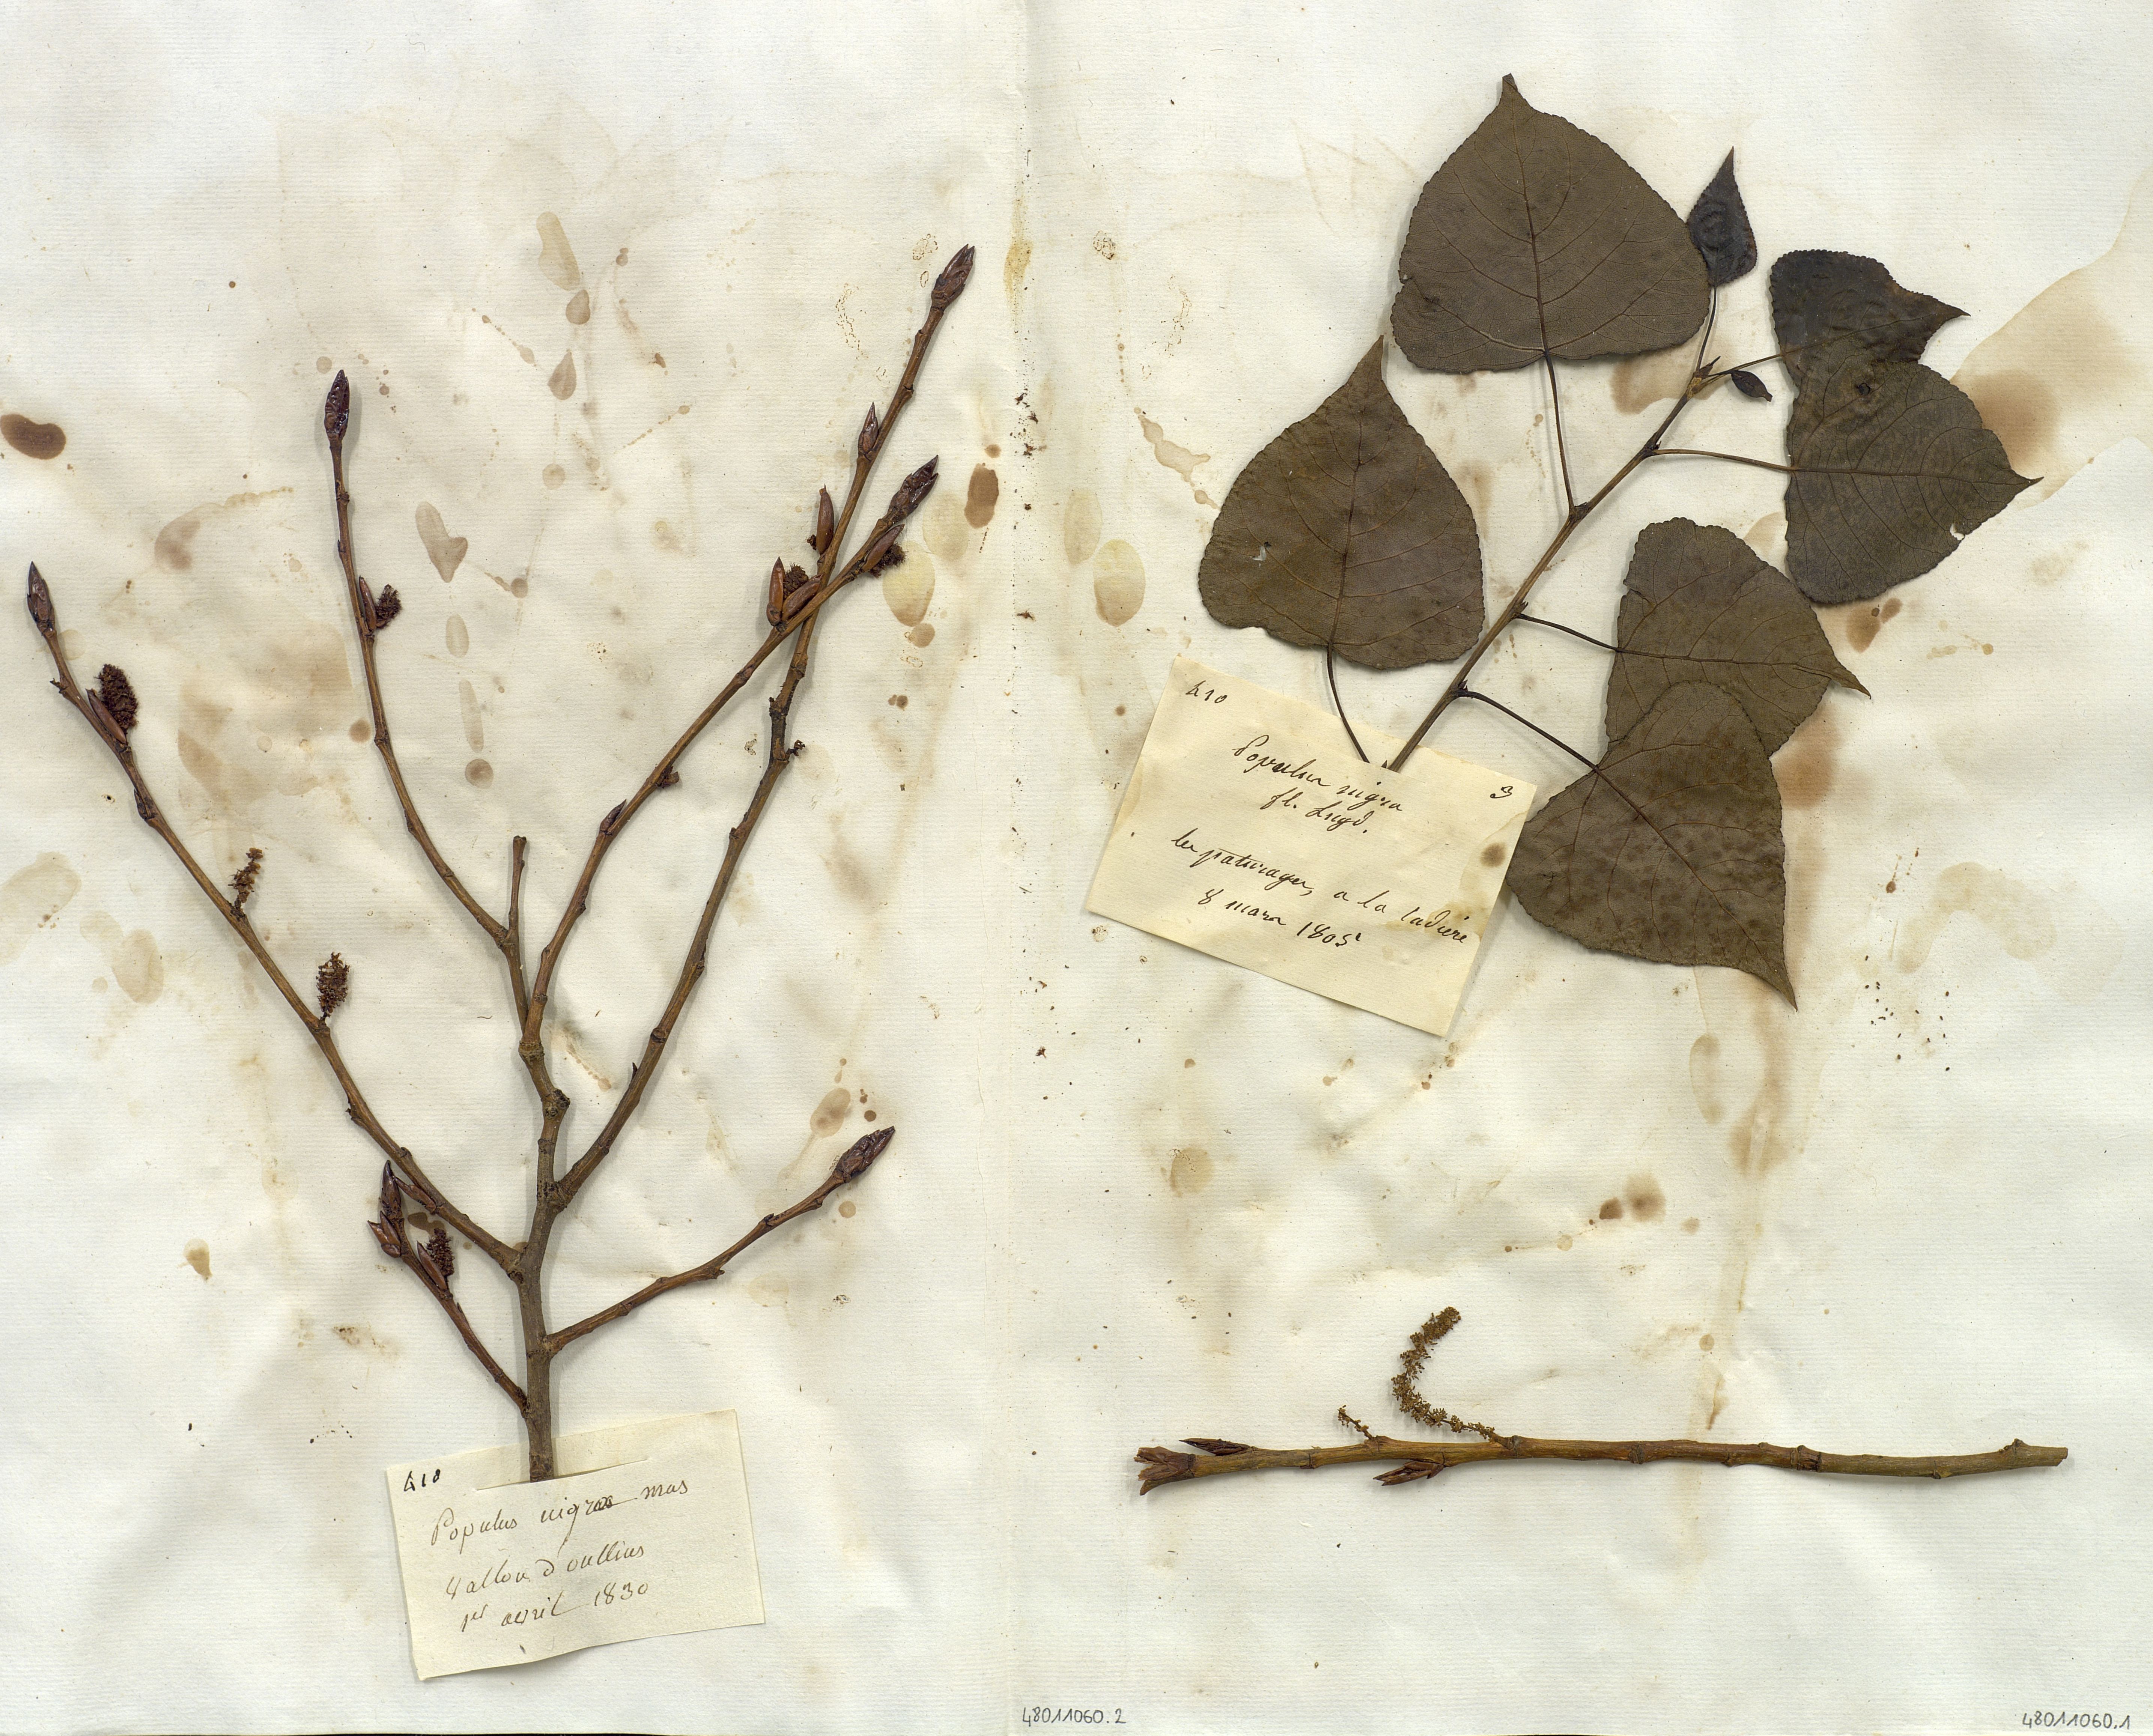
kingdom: Plantae
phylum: Tracheophyta
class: Magnoliopsida
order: Malpighiales
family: Salicaceae
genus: Populus
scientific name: Populus nigra
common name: Black poplar
